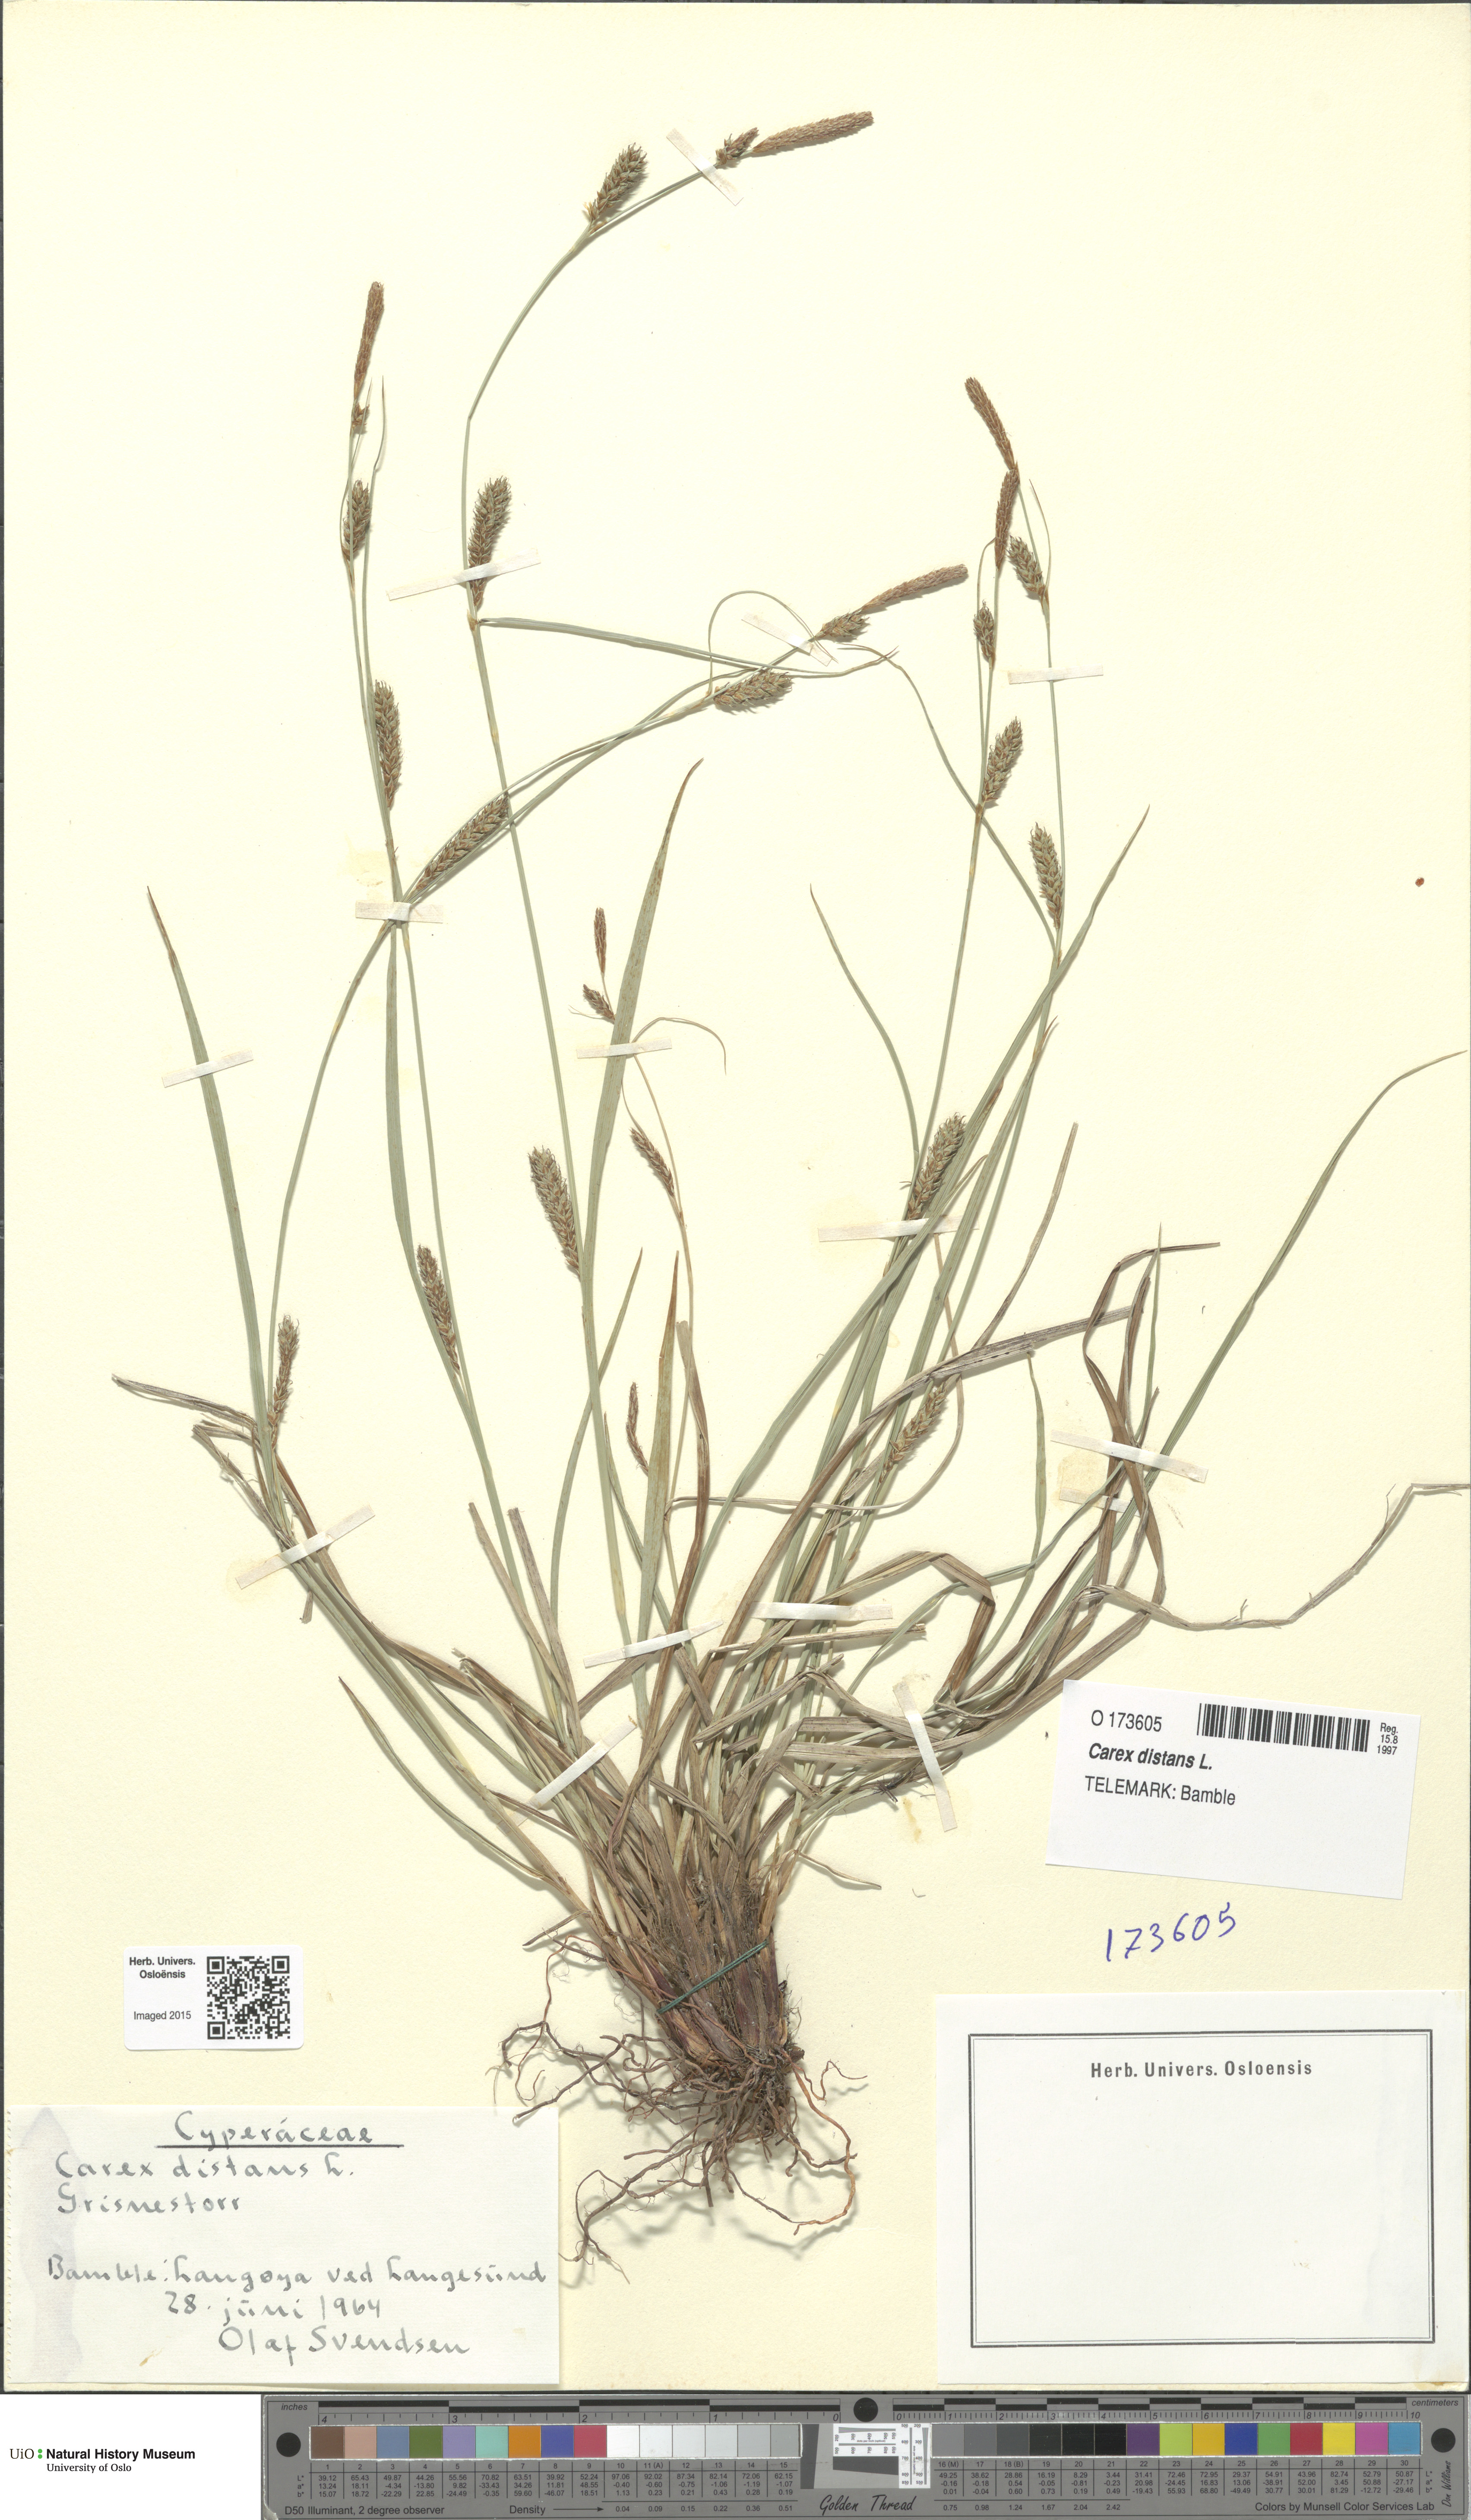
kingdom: Plantae
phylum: Tracheophyta
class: Liliopsida
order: Poales
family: Cyperaceae
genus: Carex
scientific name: Carex distans
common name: Distant sedge
